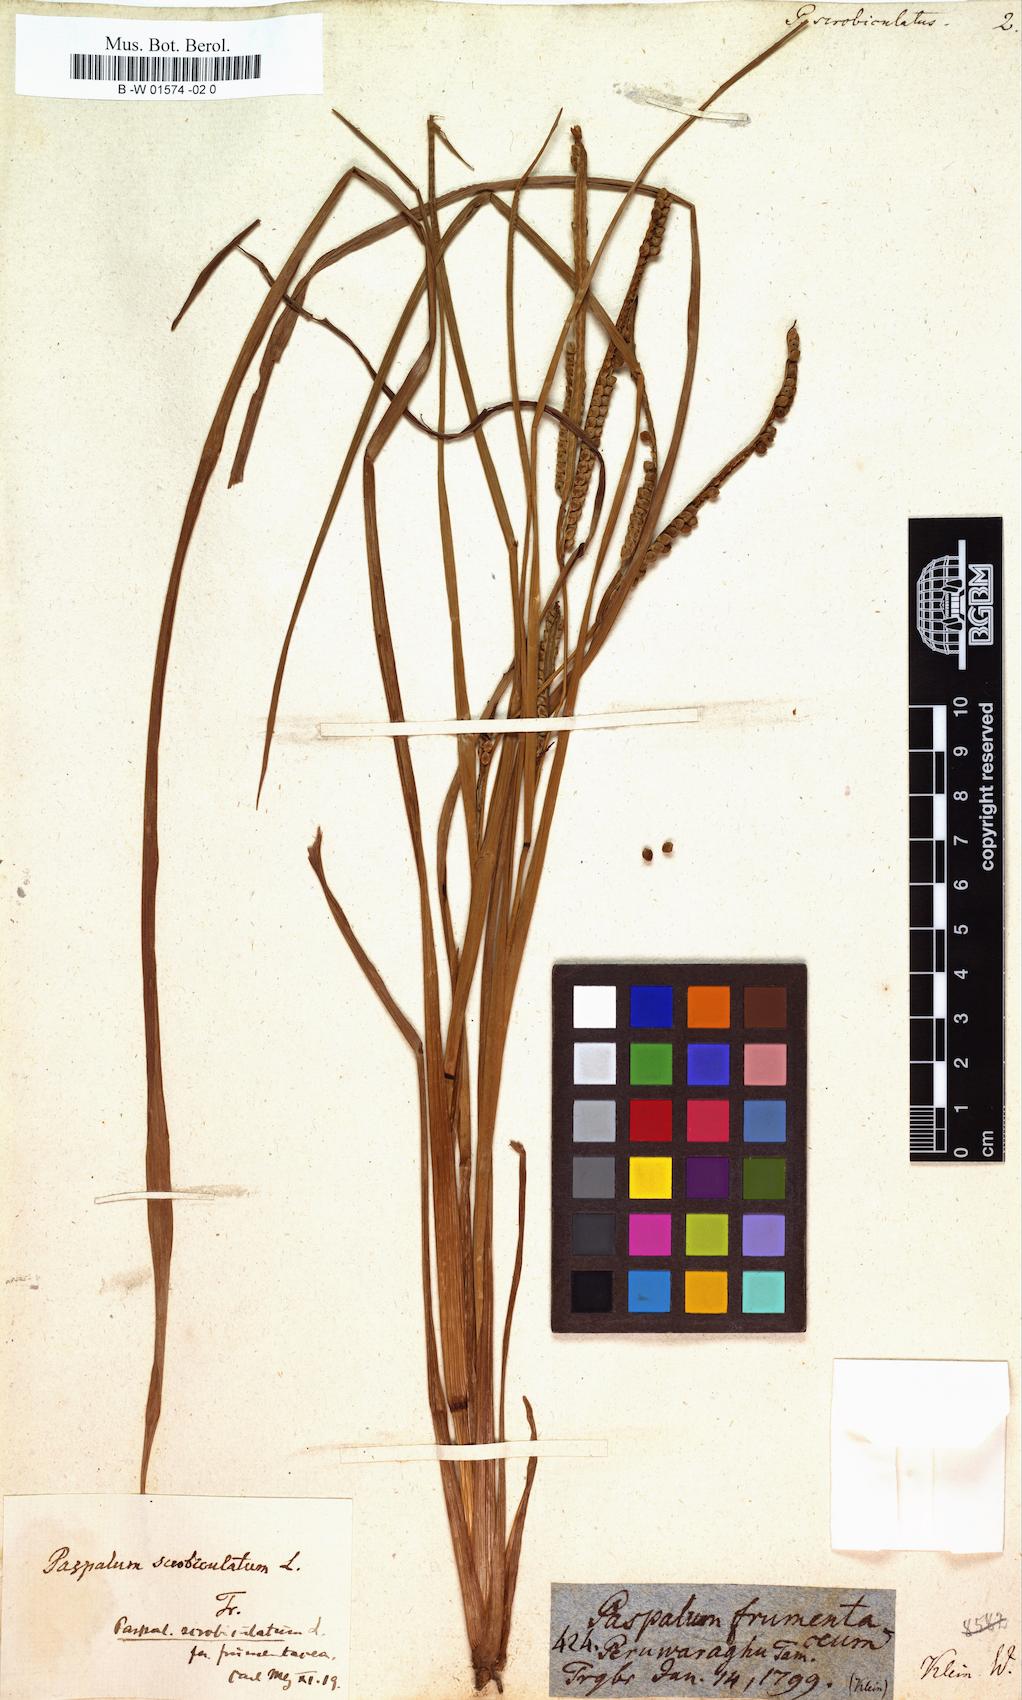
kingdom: Plantae
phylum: Tracheophyta
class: Liliopsida
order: Poales
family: Poaceae
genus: Paspalus
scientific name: Paspalus
